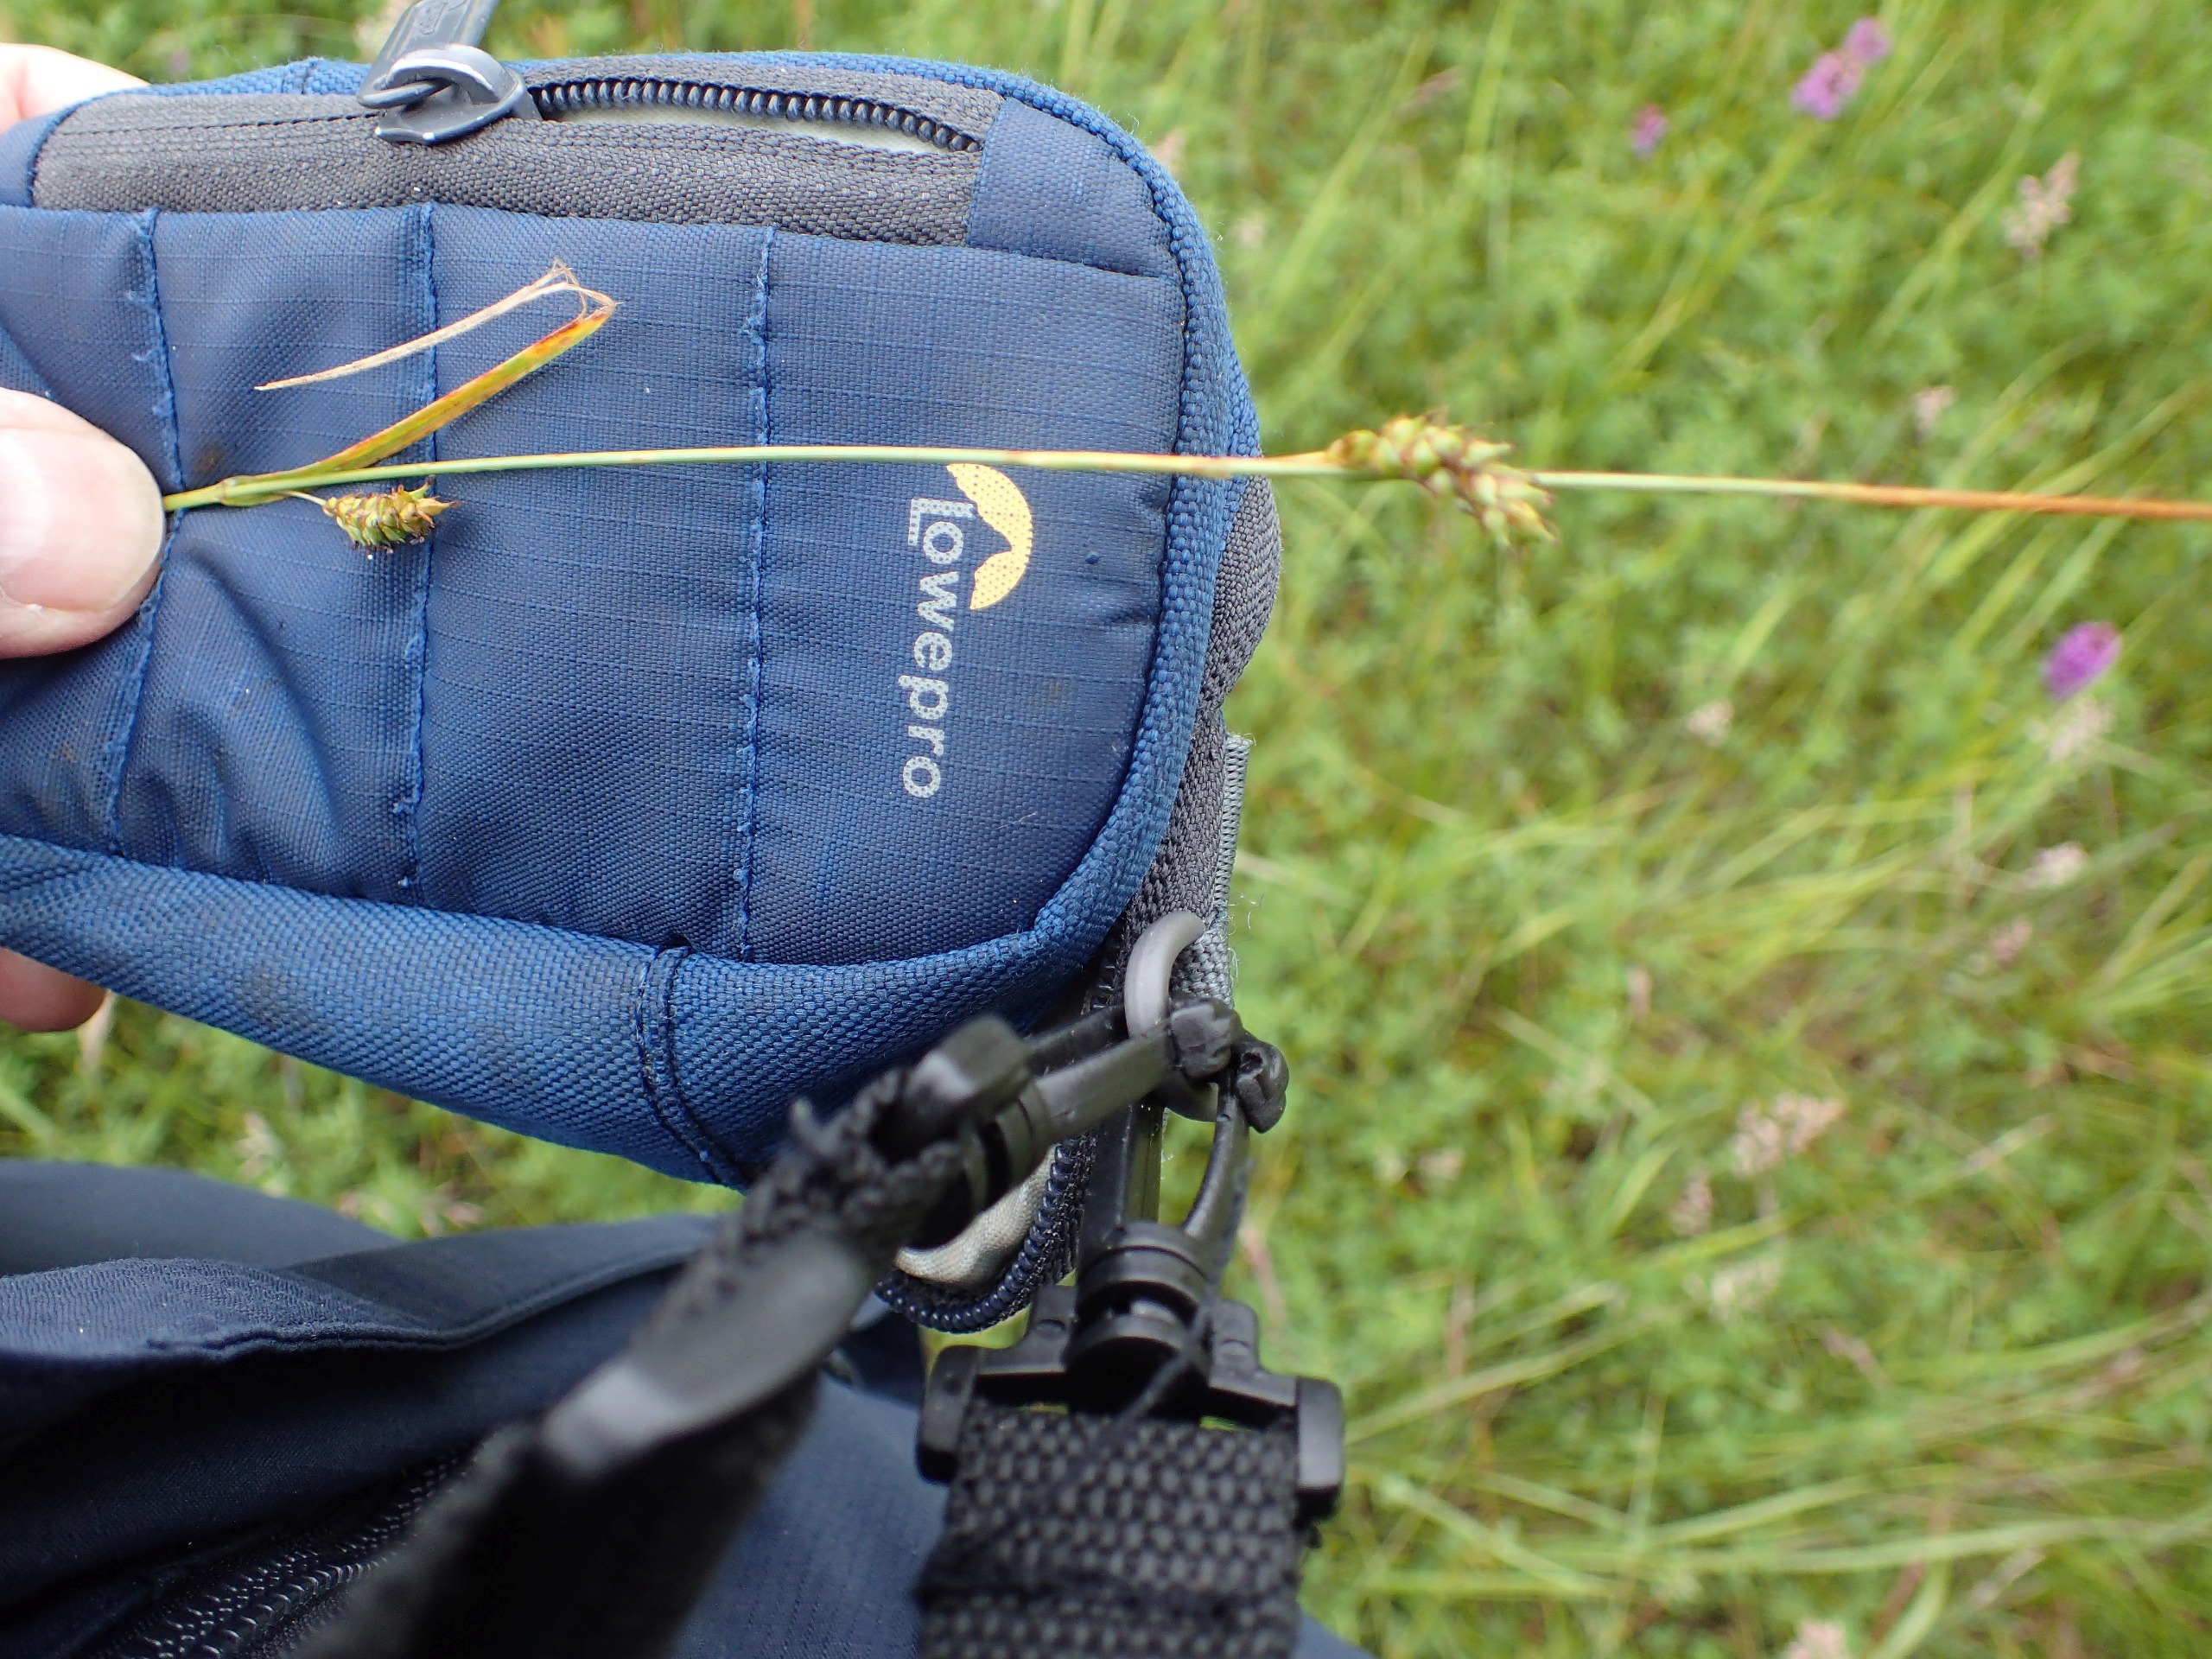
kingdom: Plantae
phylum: Tracheophyta
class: Liliopsida
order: Poales
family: Cyperaceae
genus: Carex
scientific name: Carex distans
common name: Fjernakset star
